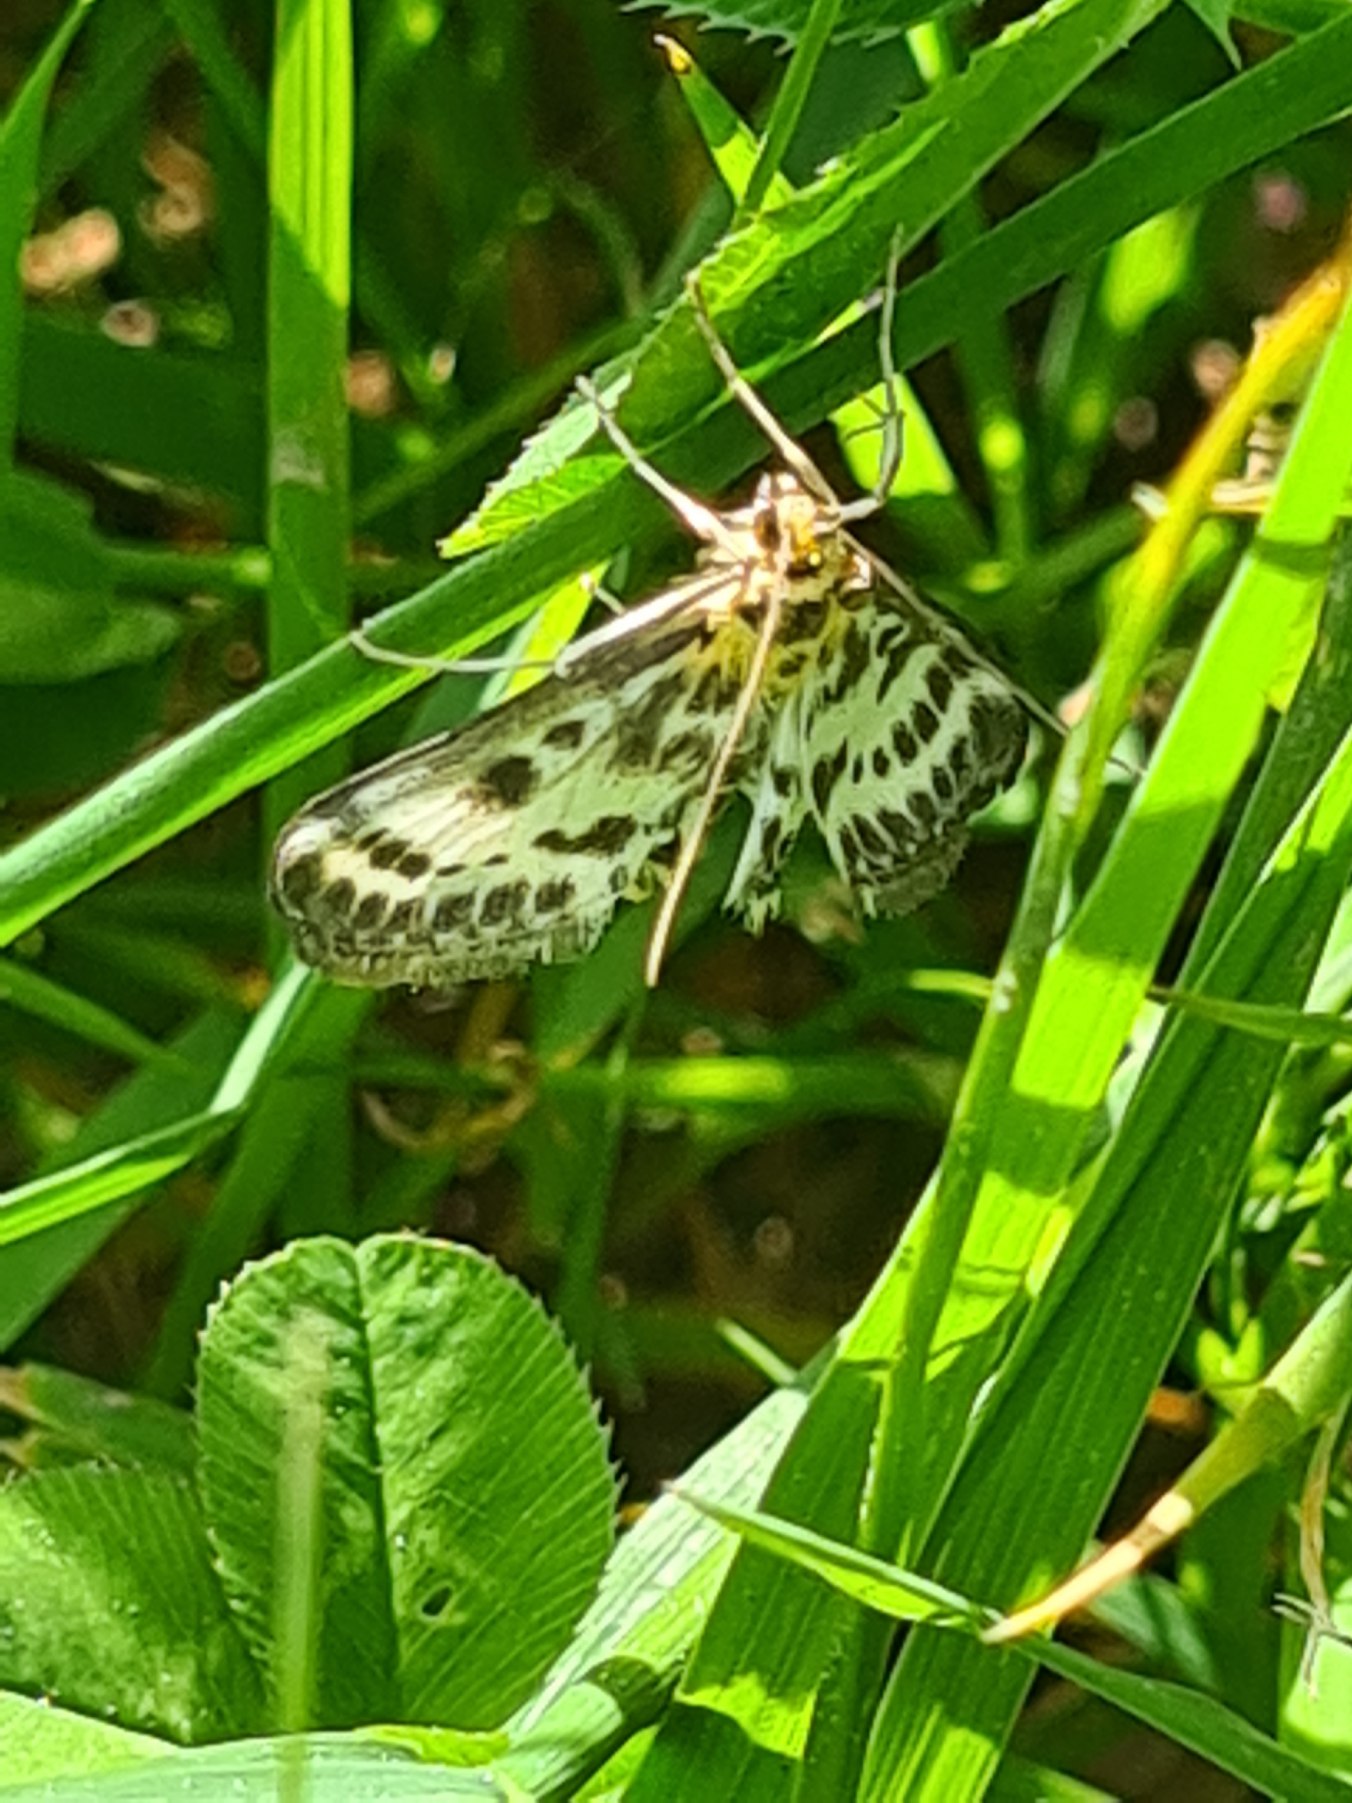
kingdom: Animalia
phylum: Arthropoda
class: Insecta
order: Lepidoptera
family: Crambidae
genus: Anania
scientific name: Anania hortulata
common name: Nældehalvmøl
